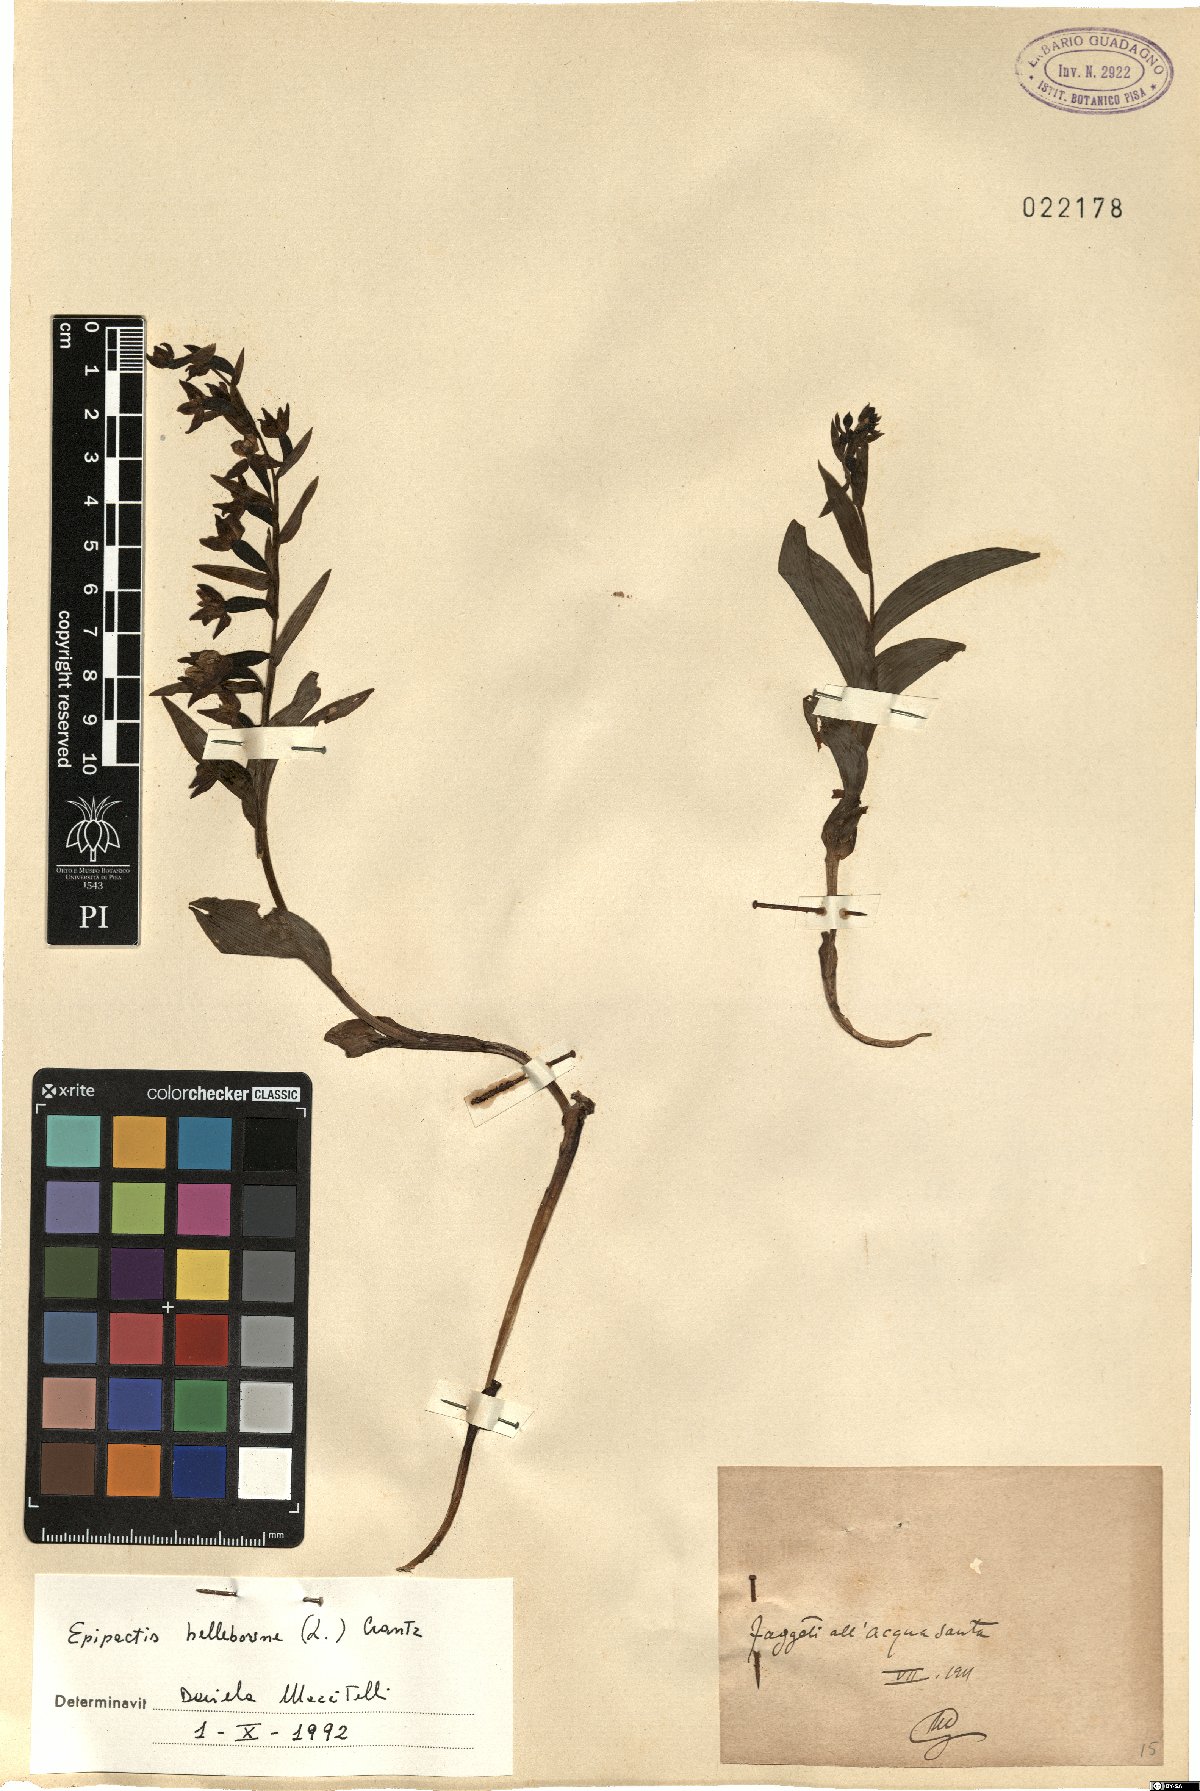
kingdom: Plantae
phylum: Tracheophyta
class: Liliopsida
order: Asparagales
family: Orchidaceae
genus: Epipactis
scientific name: Epipactis helleborine
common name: Broad-leaved helleborine
